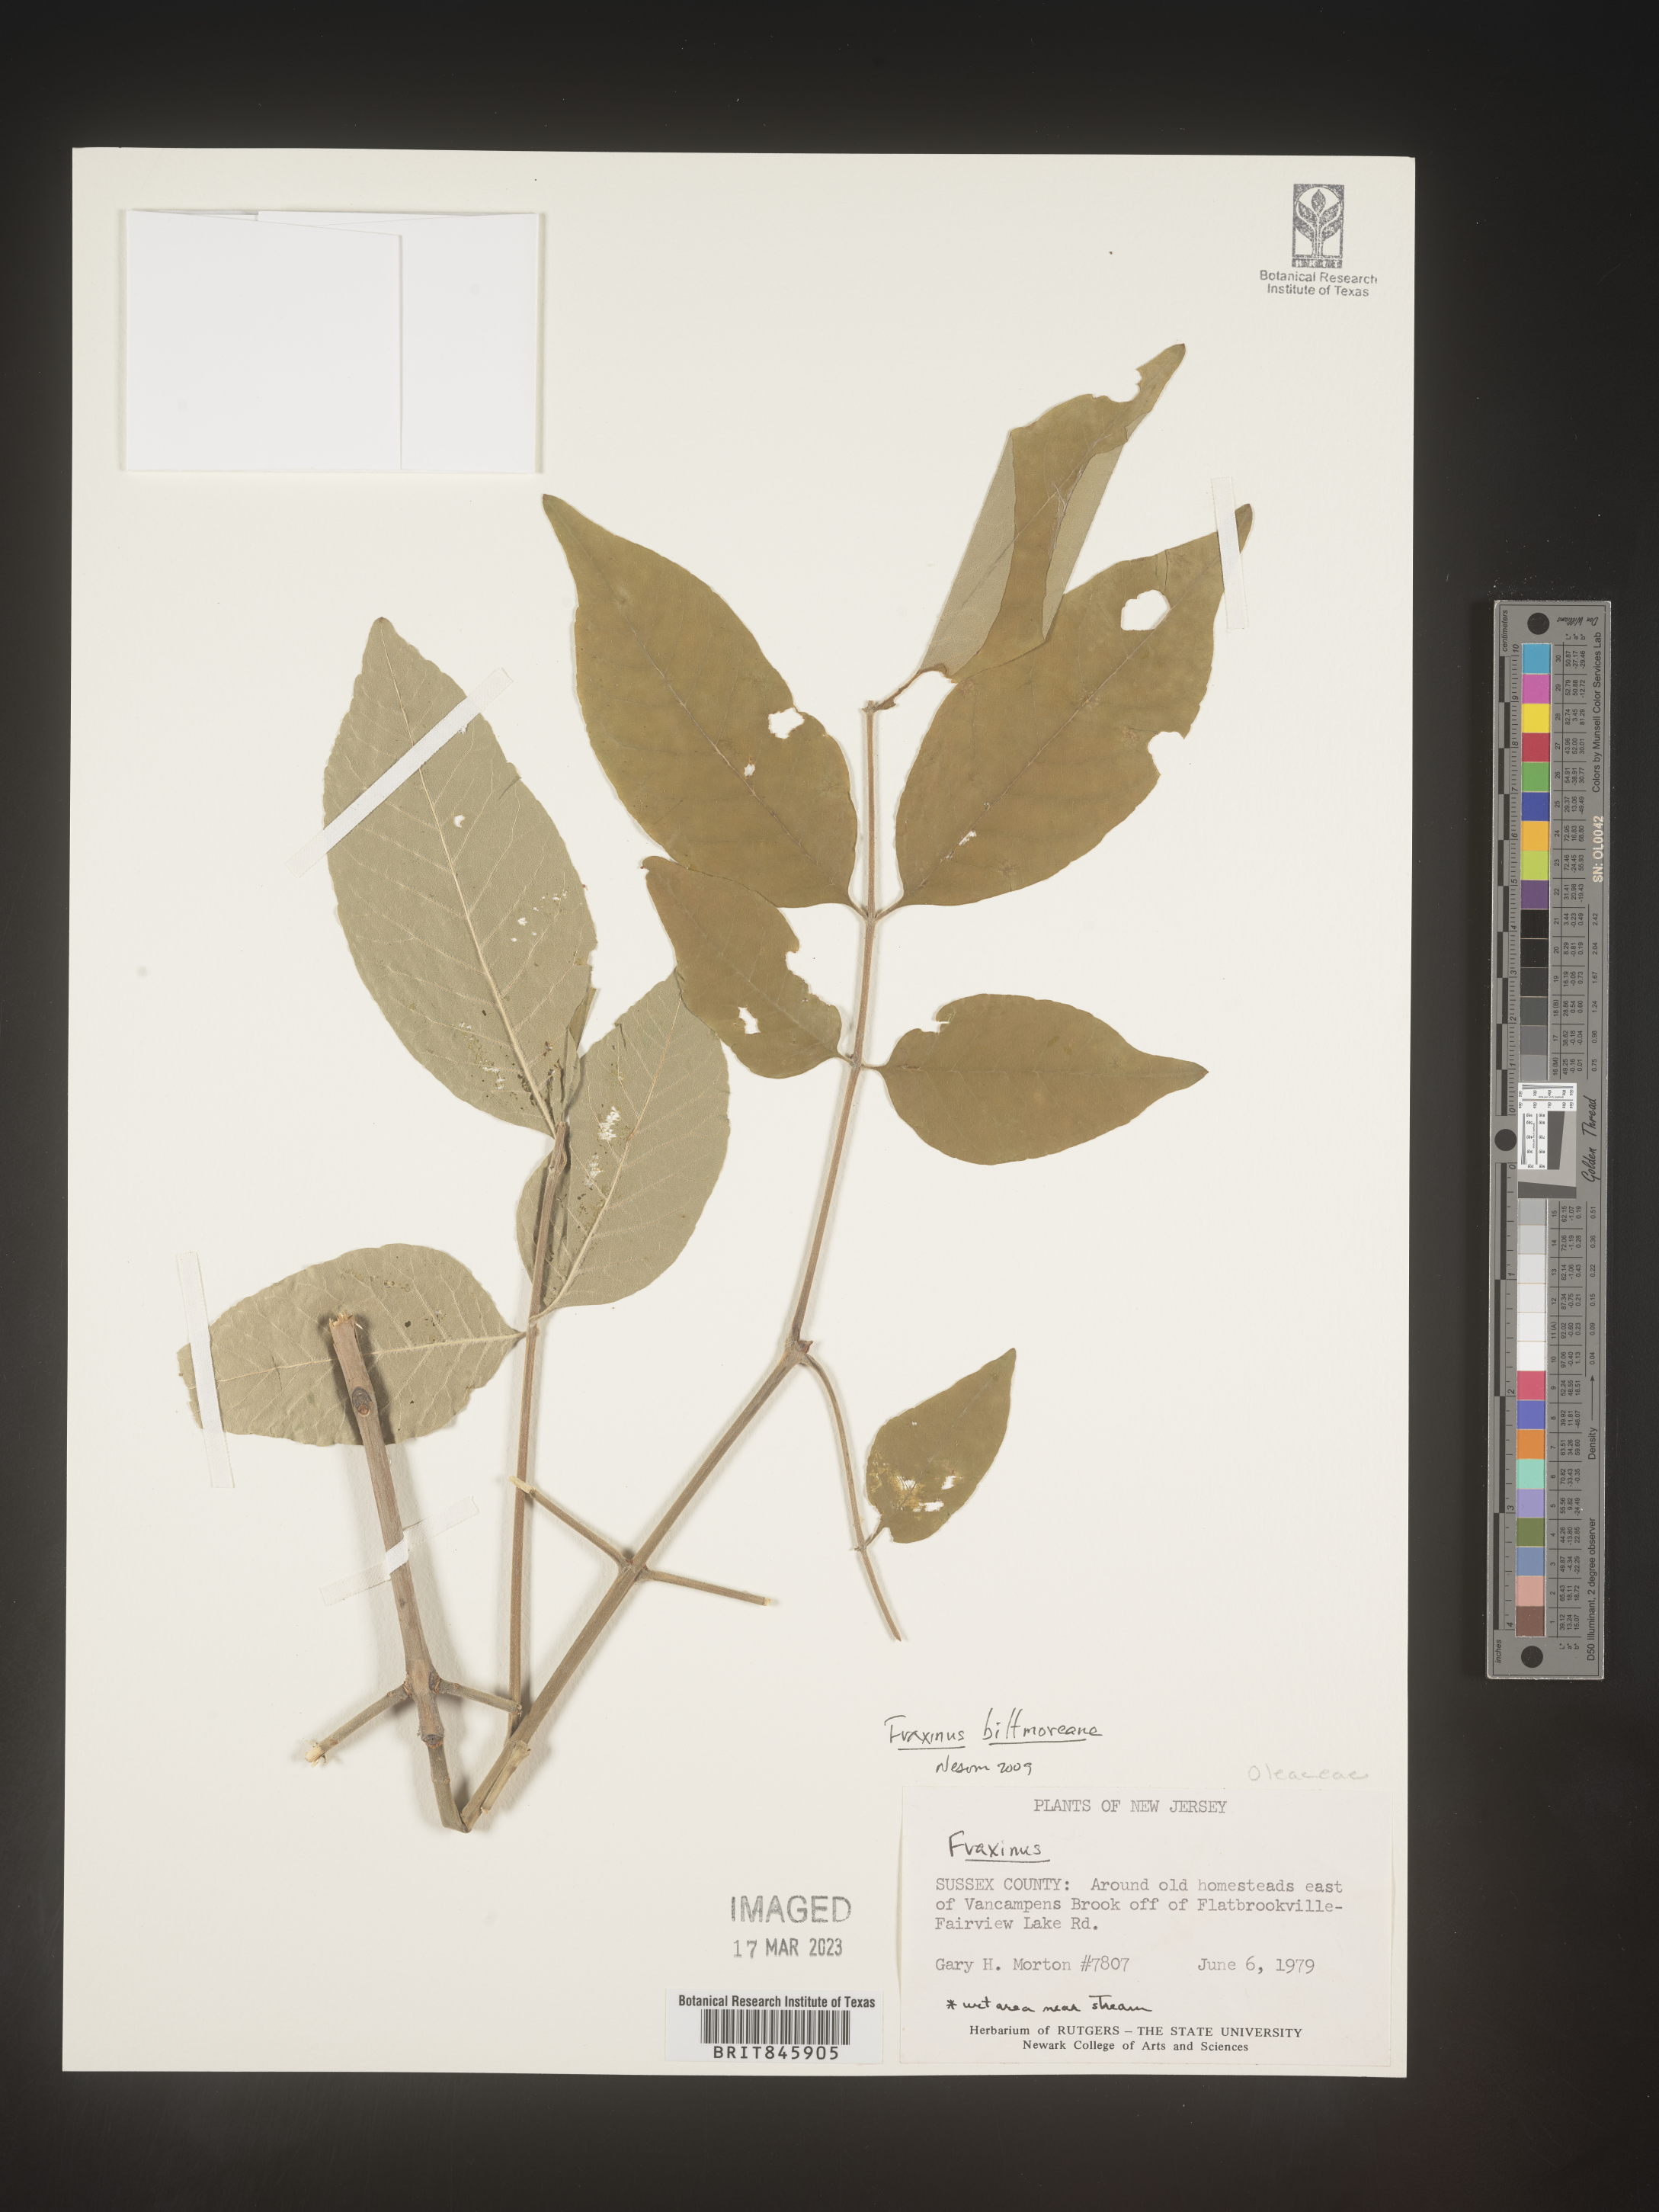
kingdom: Plantae
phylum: Tracheophyta
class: Magnoliopsida
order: Lamiales
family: Oleaceae
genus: Fraxinus
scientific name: Fraxinus americana
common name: White ash
